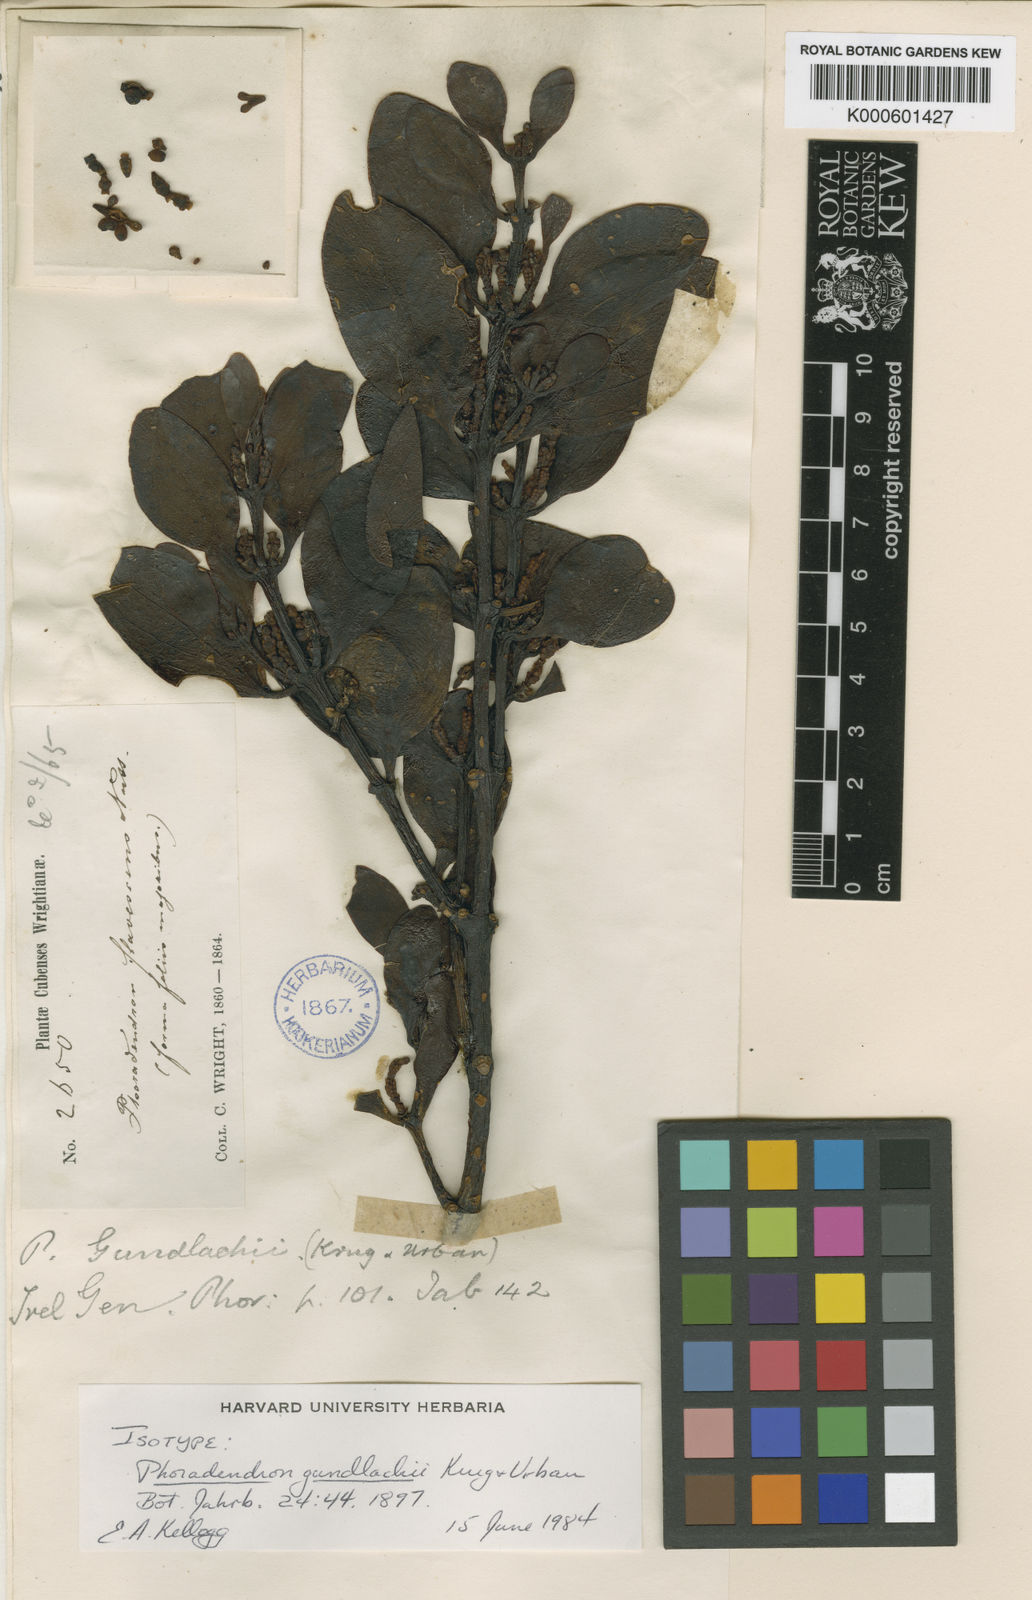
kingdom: Plantae
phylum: Tracheophyta
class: Magnoliopsida
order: Santalales
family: Viscaceae
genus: Phoradendron
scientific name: Phoradendron gundlachii
